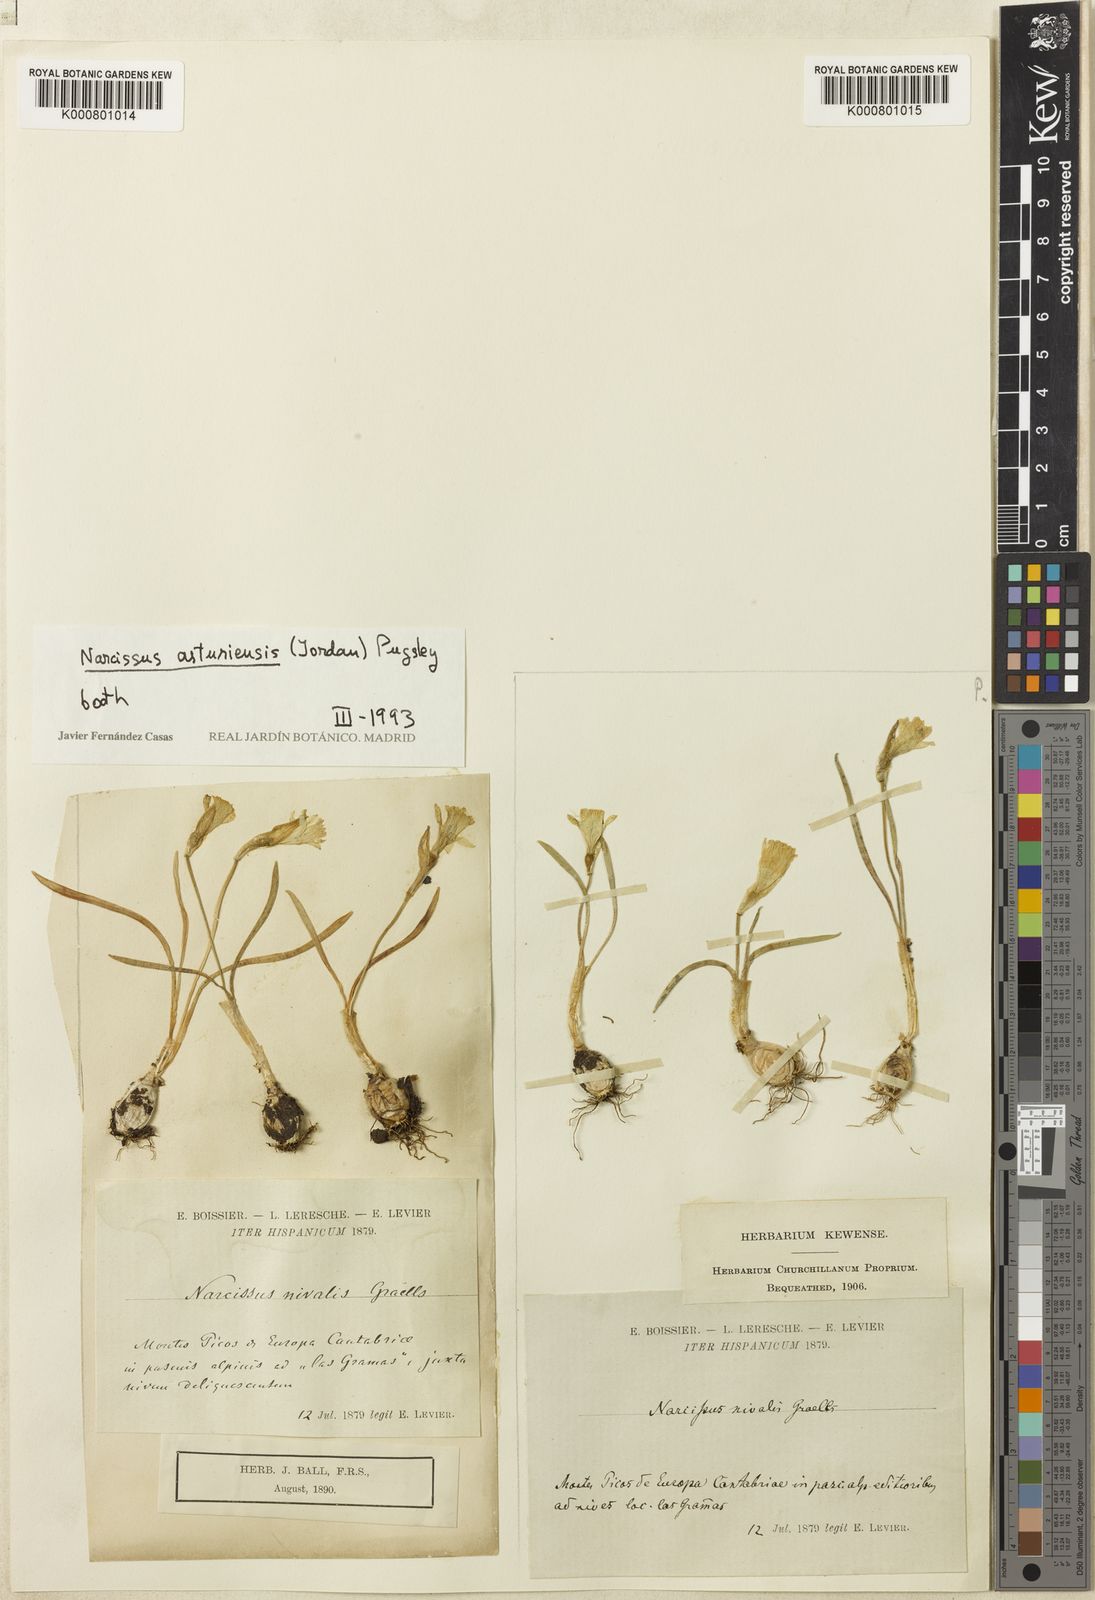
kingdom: Plantae
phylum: Tracheophyta
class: Liliopsida
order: Asparagales
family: Amaryllidaceae
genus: Narcissus
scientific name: Narcissus cuneiflorus
